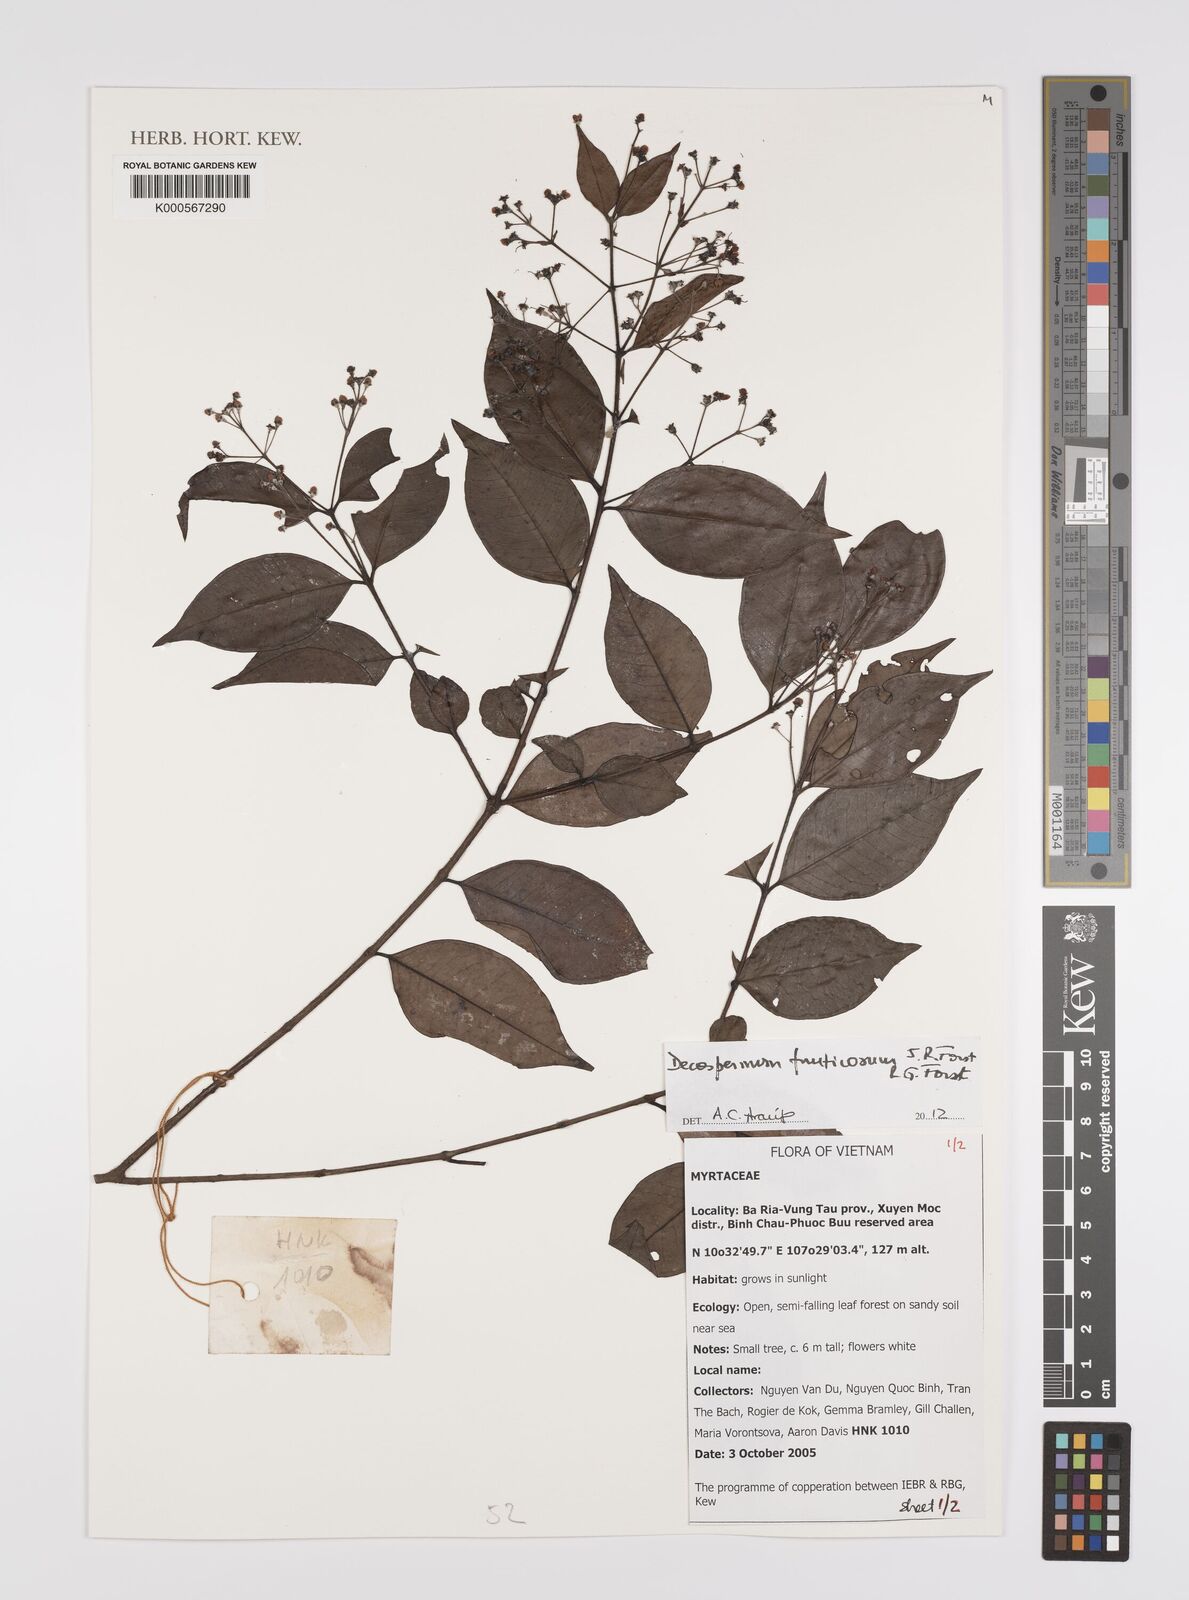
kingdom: Plantae
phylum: Tracheophyta
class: Magnoliopsida
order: Myrtales
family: Myrtaceae
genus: Decaspermum
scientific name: Decaspermum fruticosum
